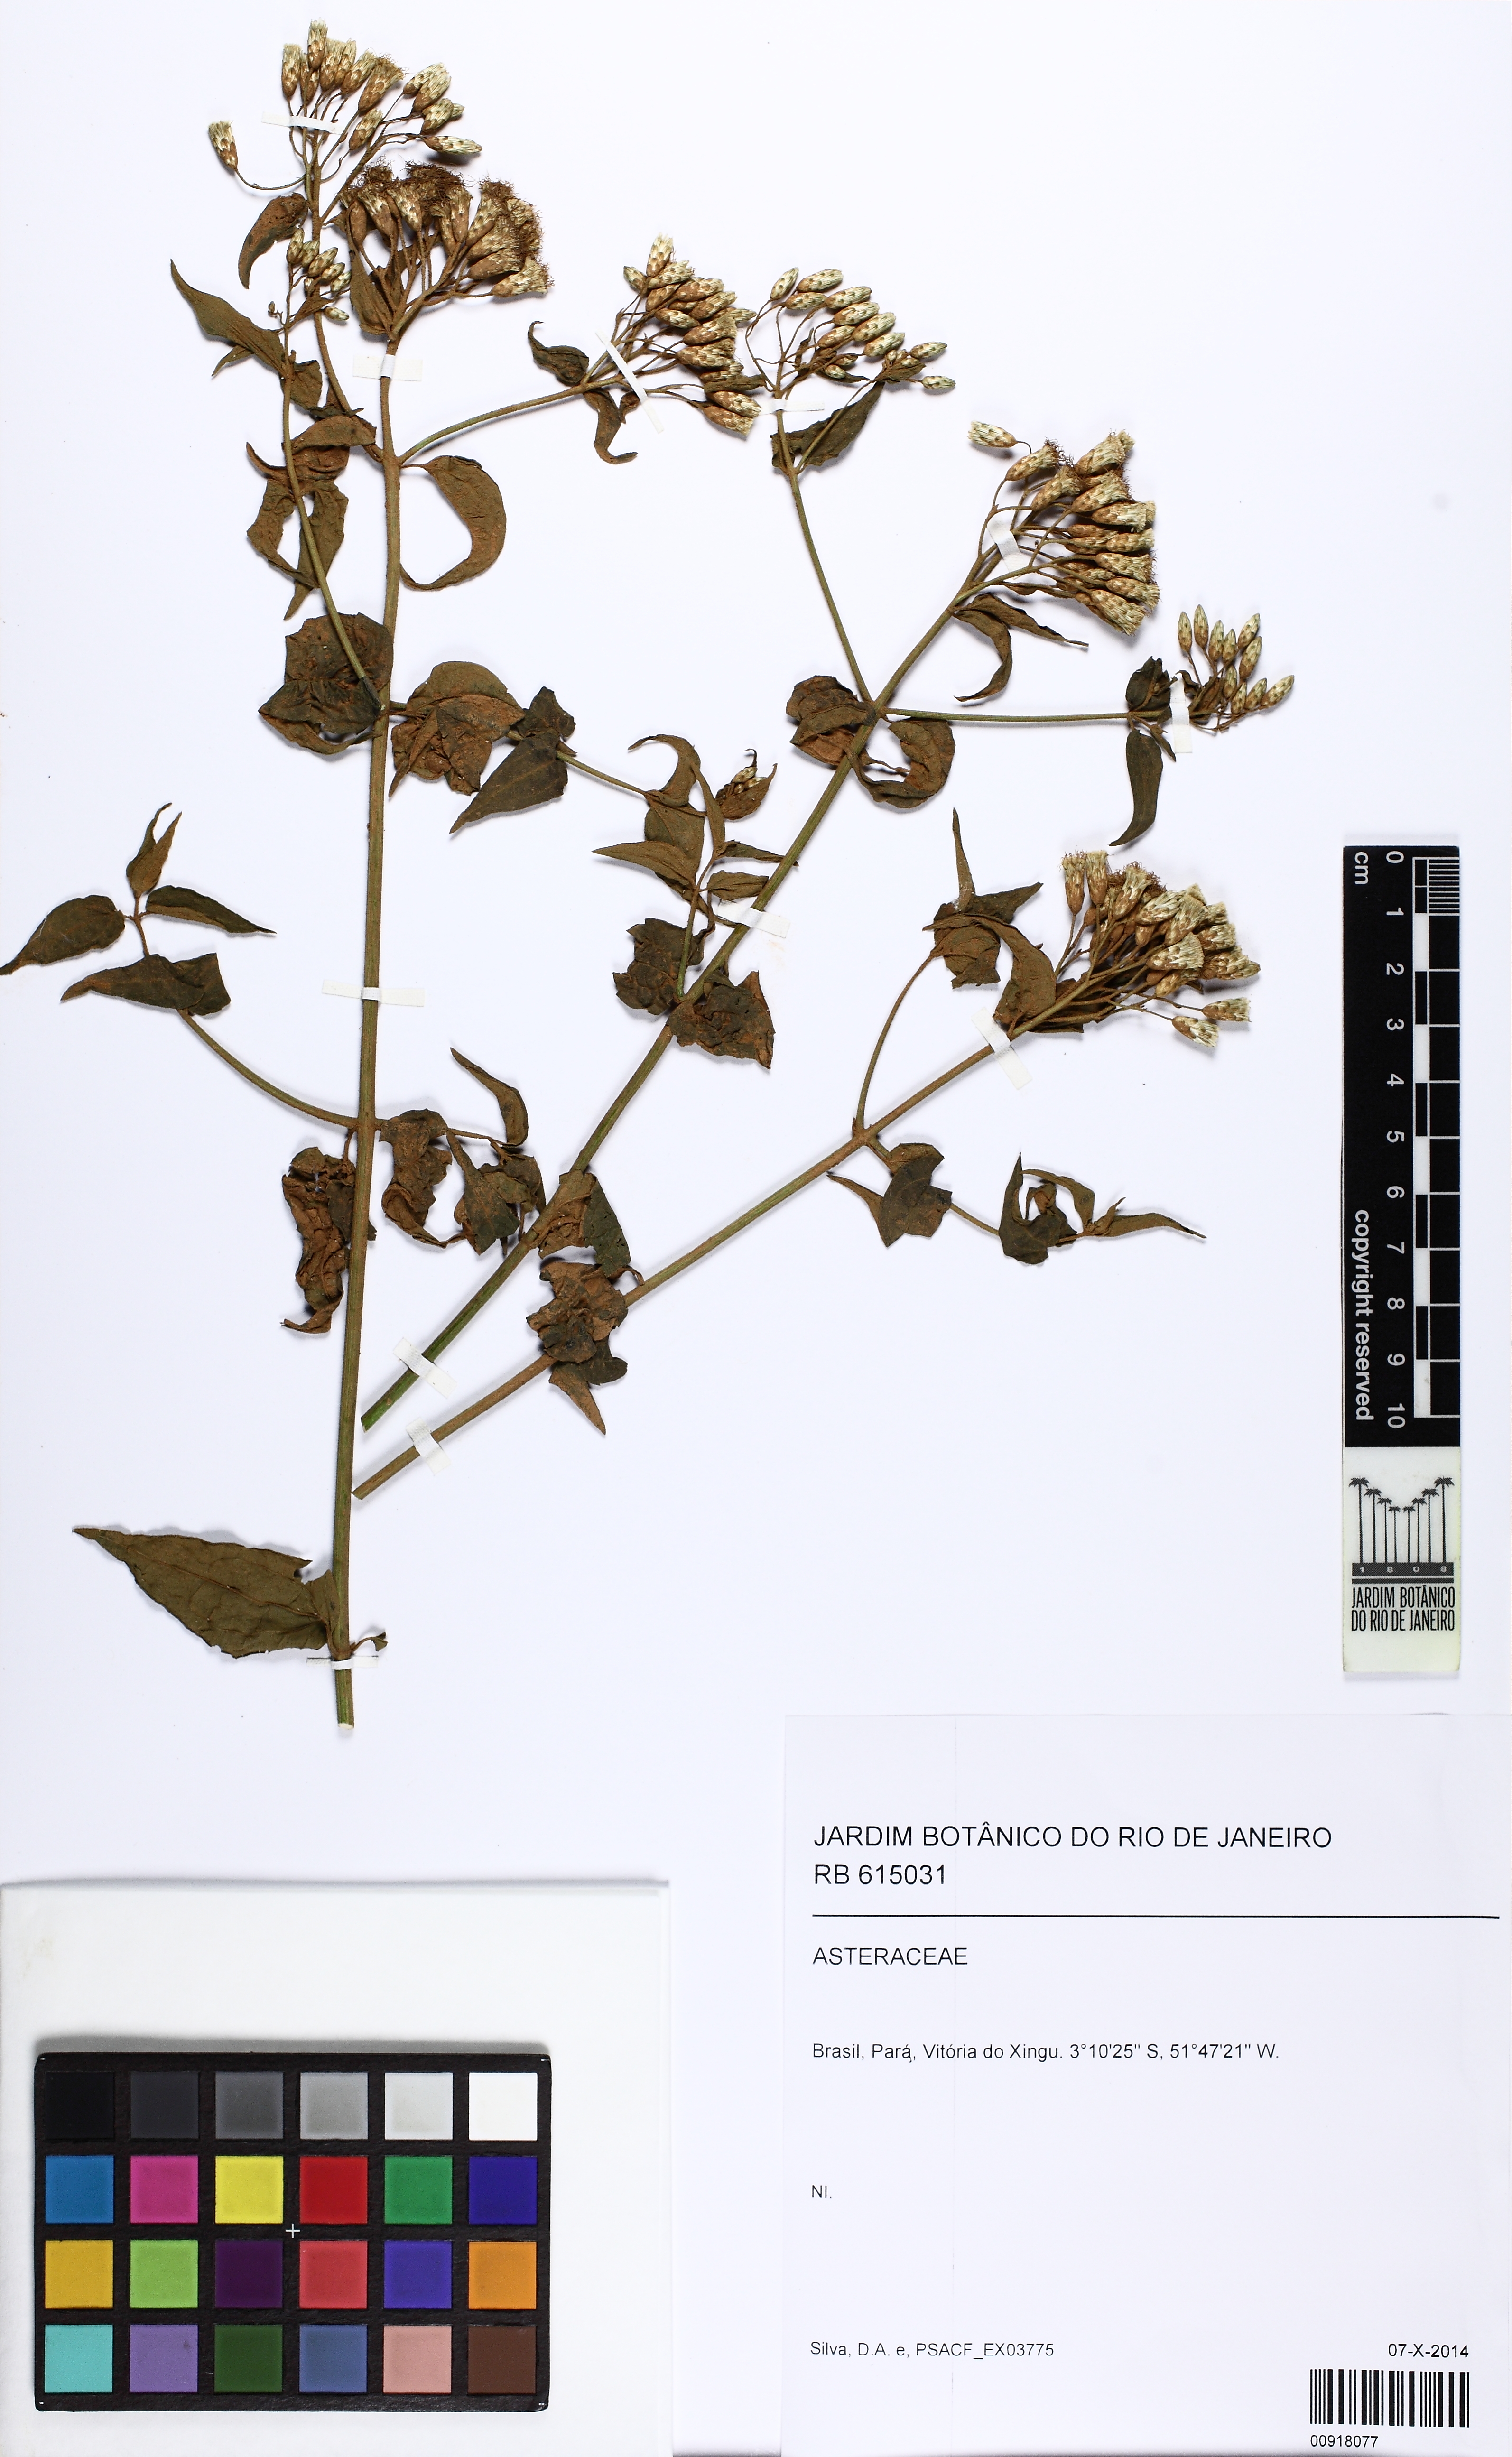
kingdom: Plantae
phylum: Tracheophyta
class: Magnoliopsida
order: Asterales
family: Asteraceae
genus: Chromolaena
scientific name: Chromolaena
